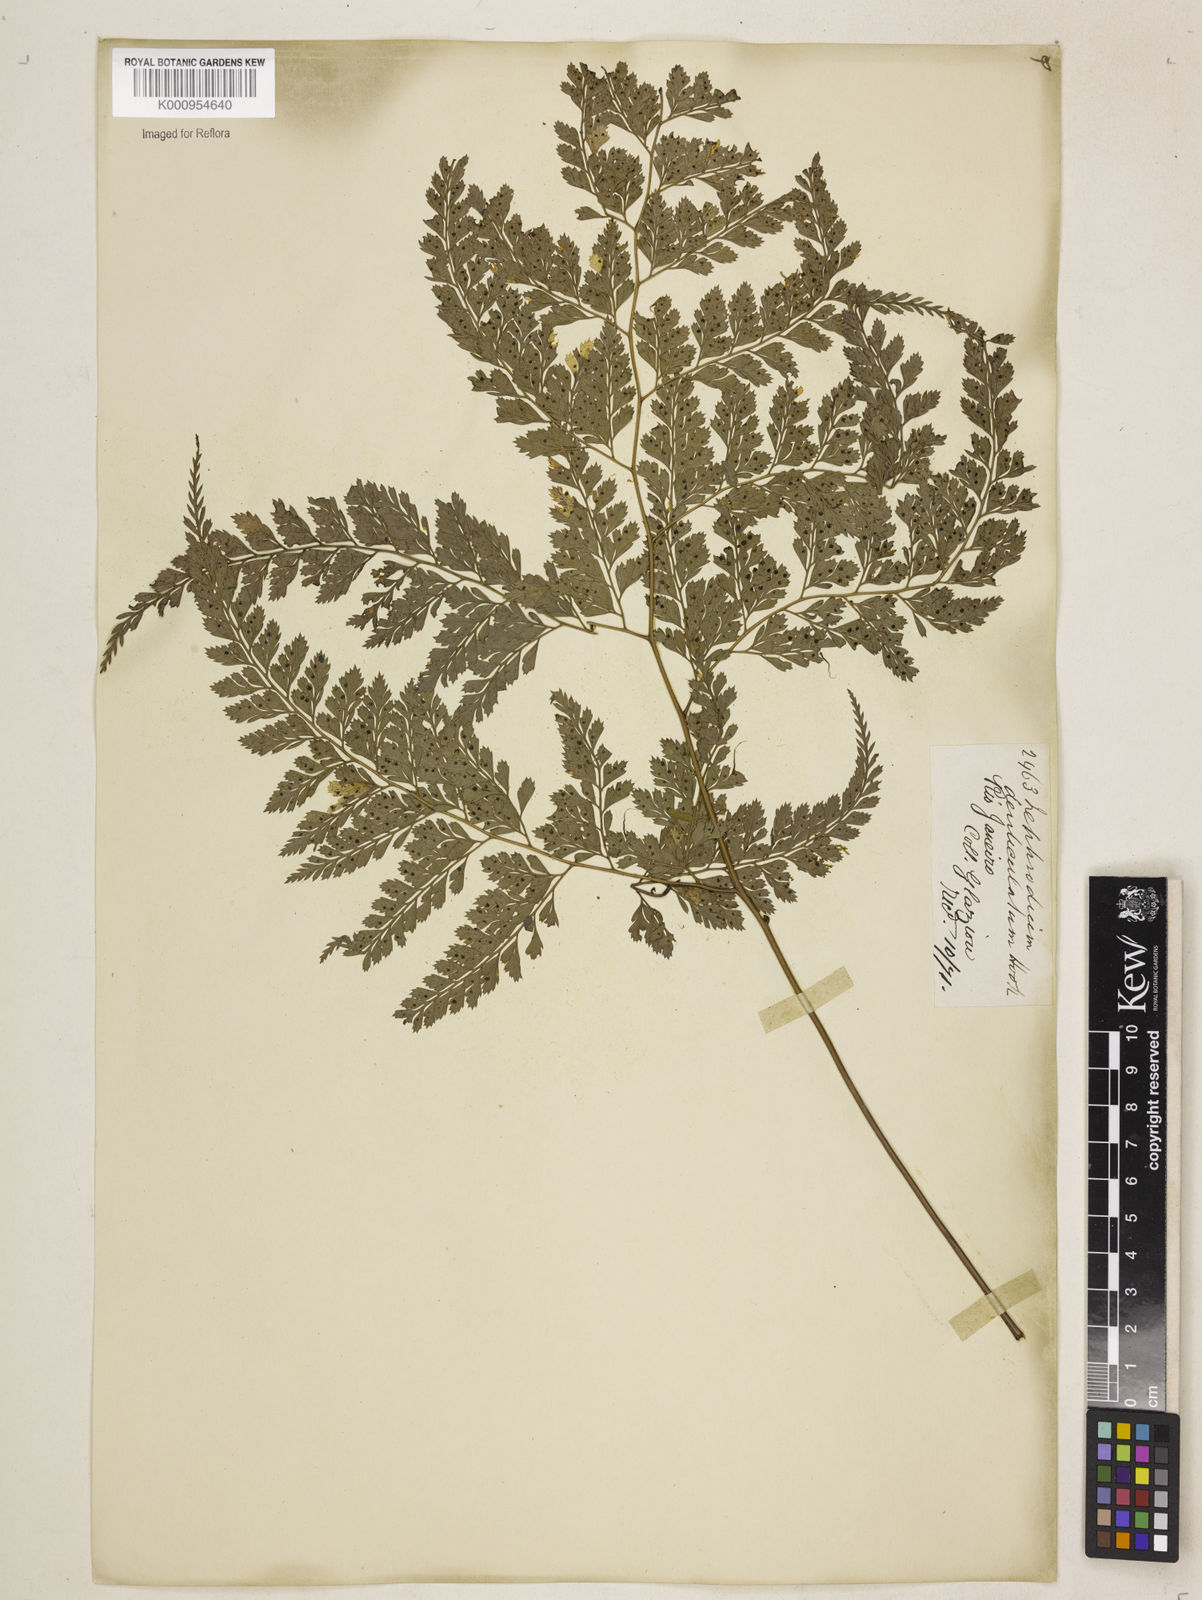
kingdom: Plantae
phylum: Tracheophyta
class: Polypodiopsida
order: Polypodiales
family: Dryopteridaceae
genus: Arachniodes
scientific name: Arachniodes denticulata
